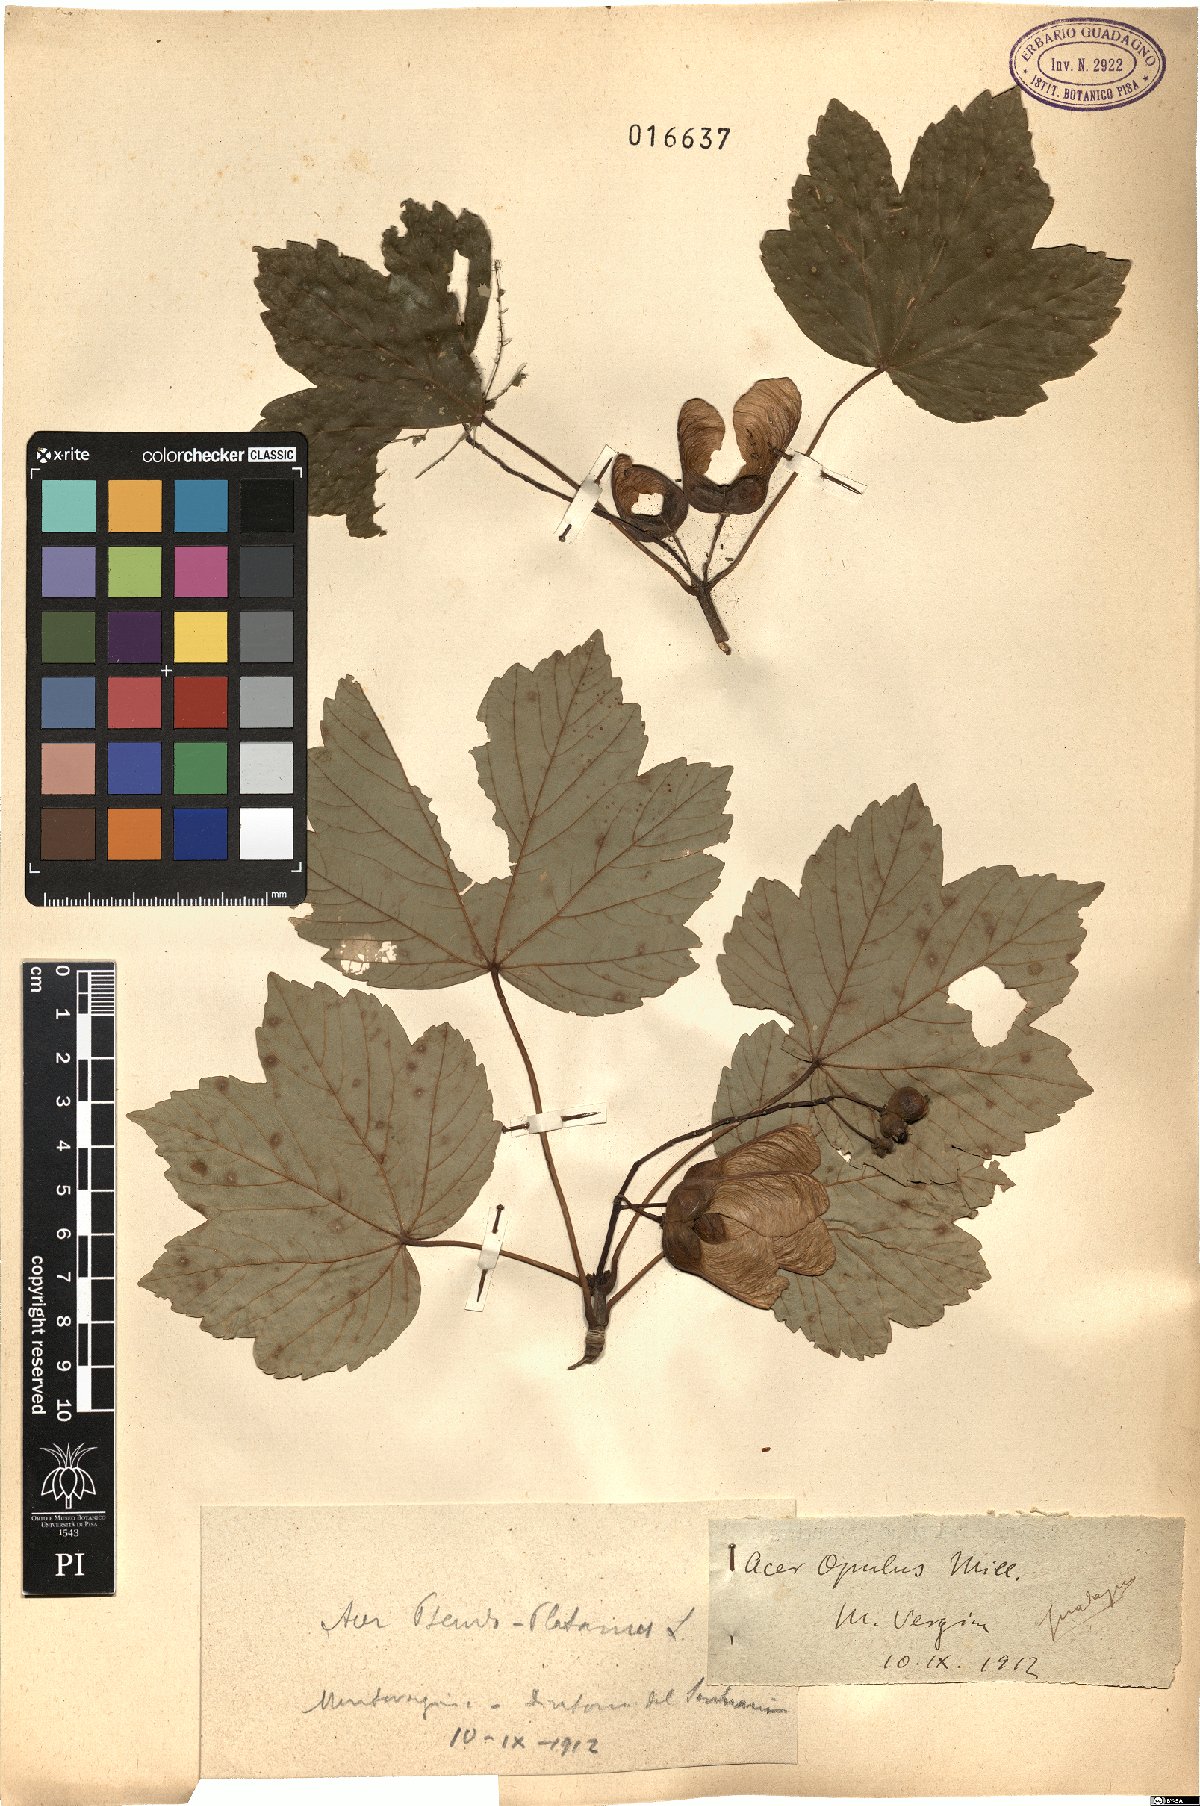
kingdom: Plantae
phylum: Tracheophyta
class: Magnoliopsida
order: Sapindales
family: Sapindaceae
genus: Acer
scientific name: Acer opalus
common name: Italian maple
